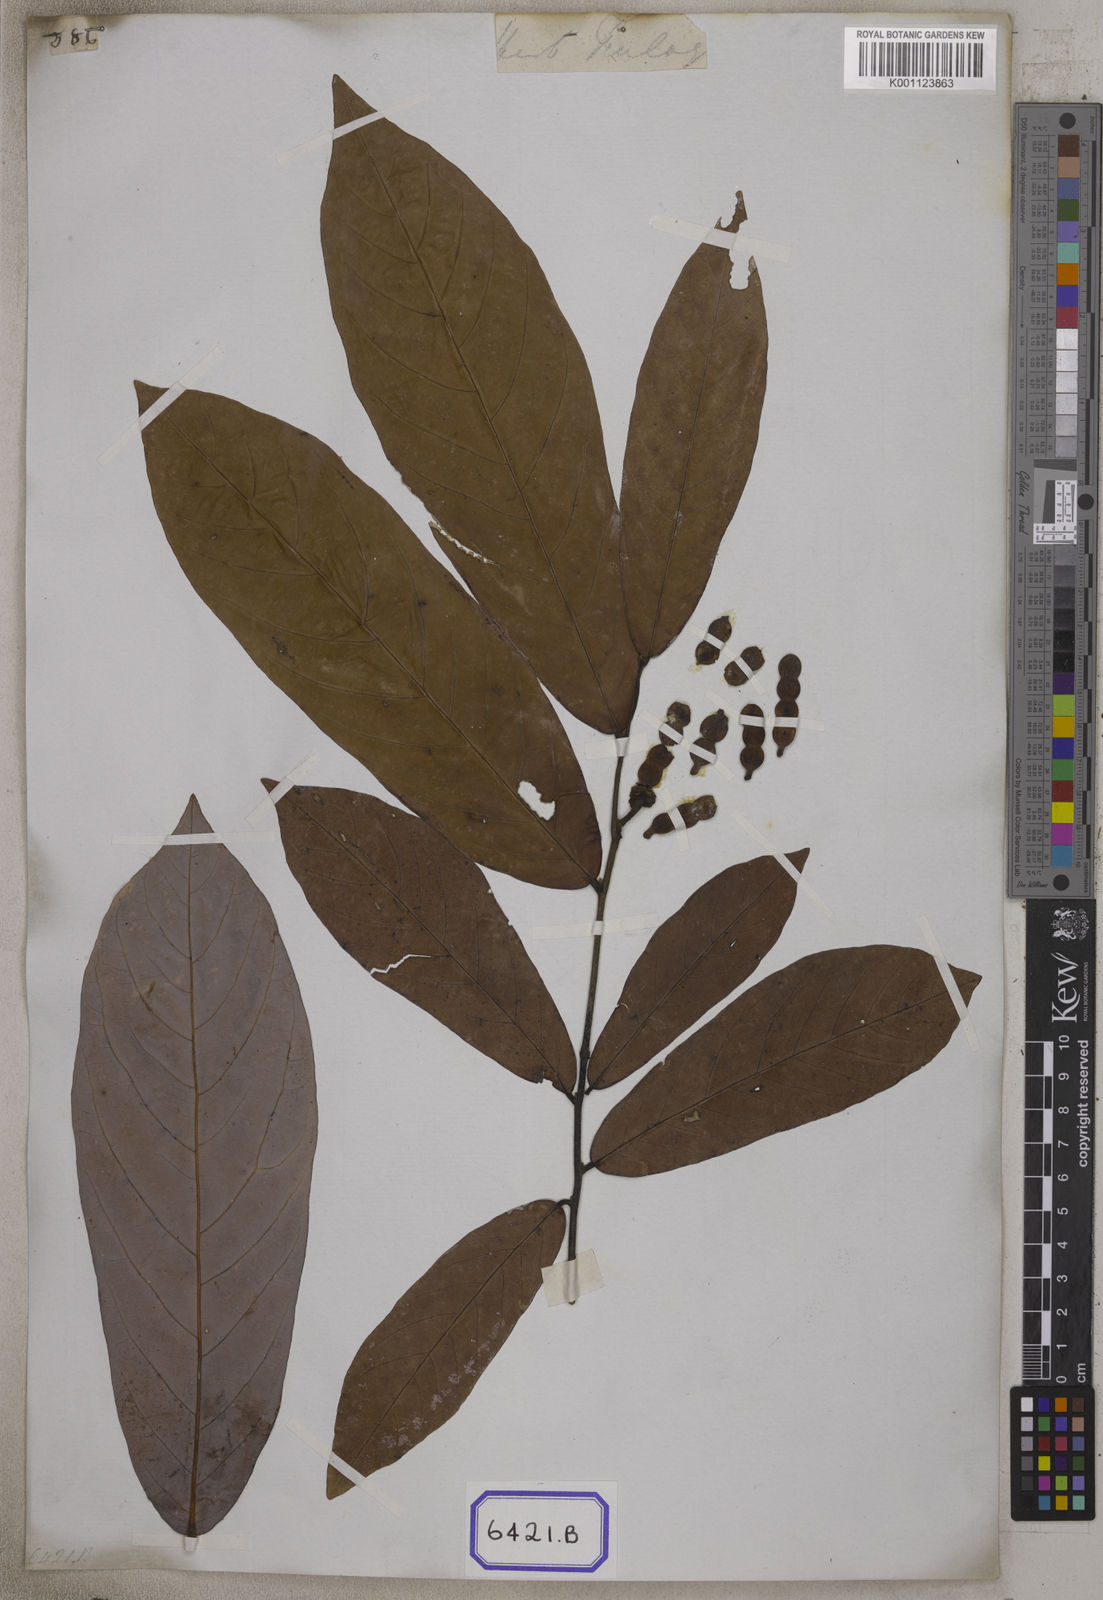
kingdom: Plantae
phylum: Tracheophyta
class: Magnoliopsida
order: Magnoliales
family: Annonaceae
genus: Dasymaschalon
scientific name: Dasymaschalon dasymaschalum
